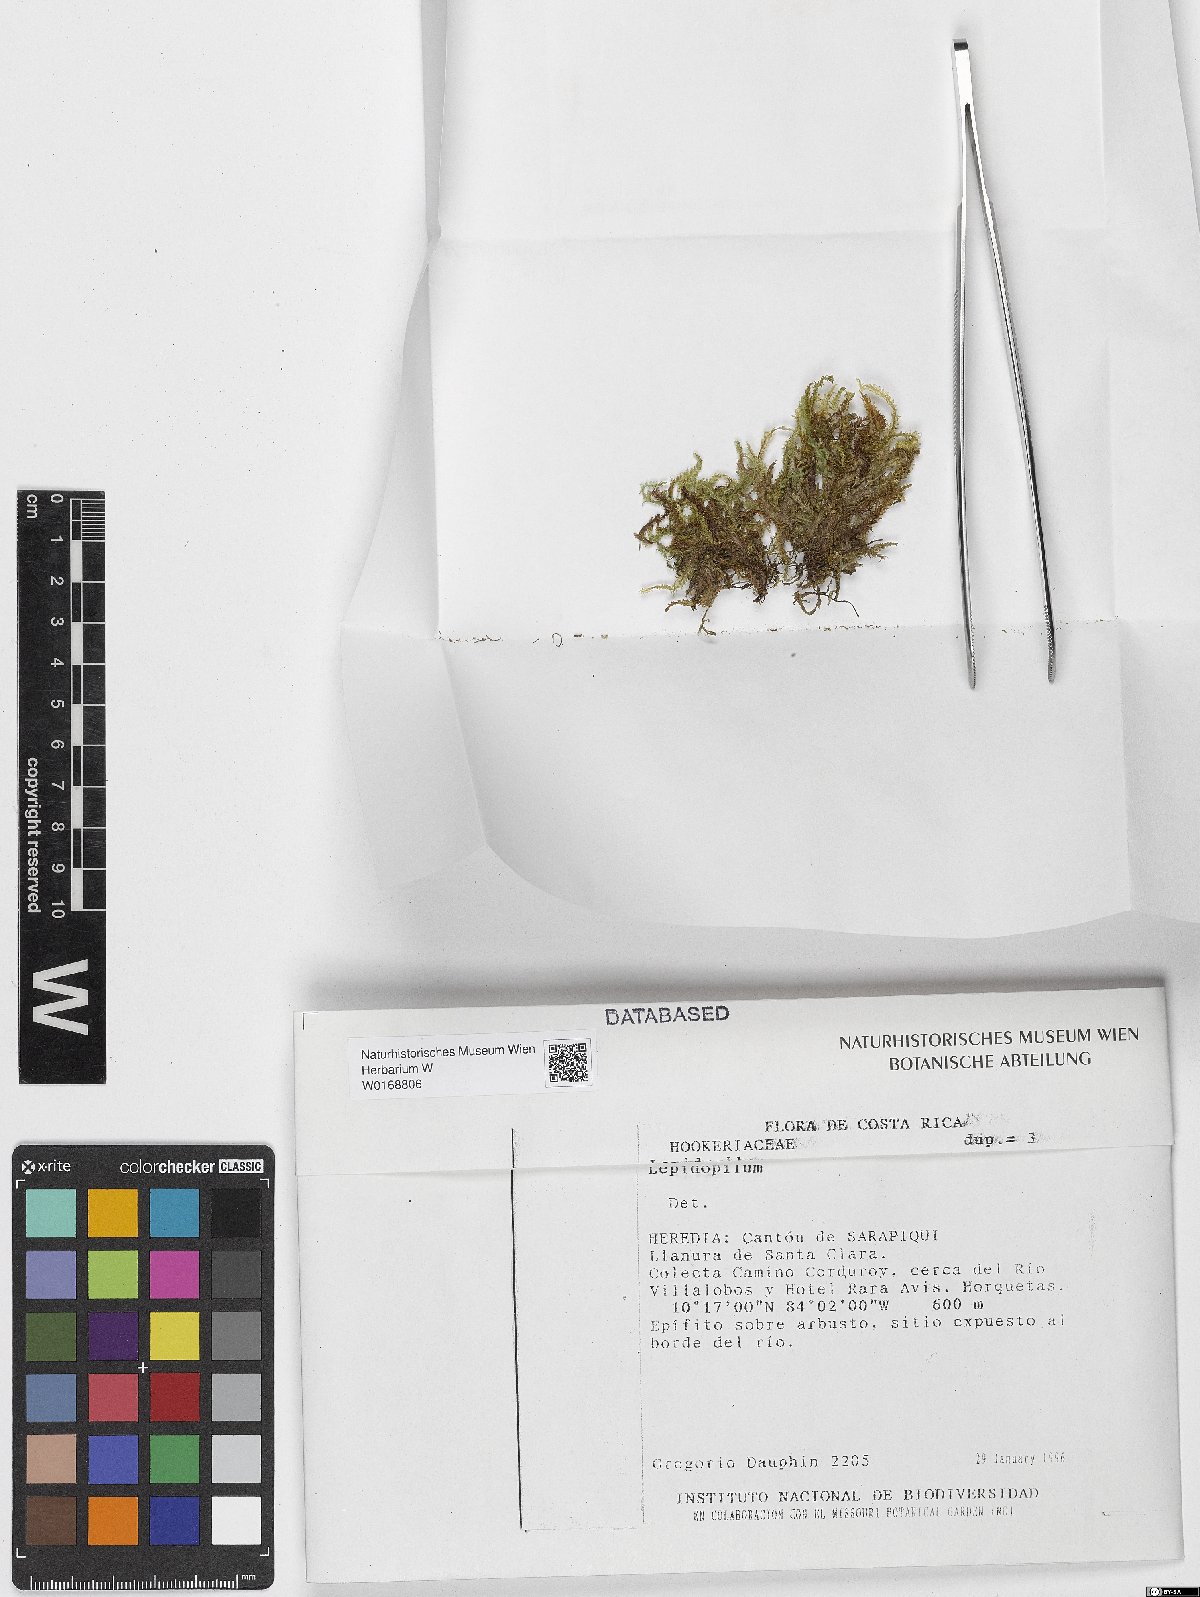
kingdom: Plantae
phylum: Bryophyta
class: Bryopsida
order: Hookeriales
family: Pilotrichaceae
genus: Lepidopilum
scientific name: Lepidopilum
